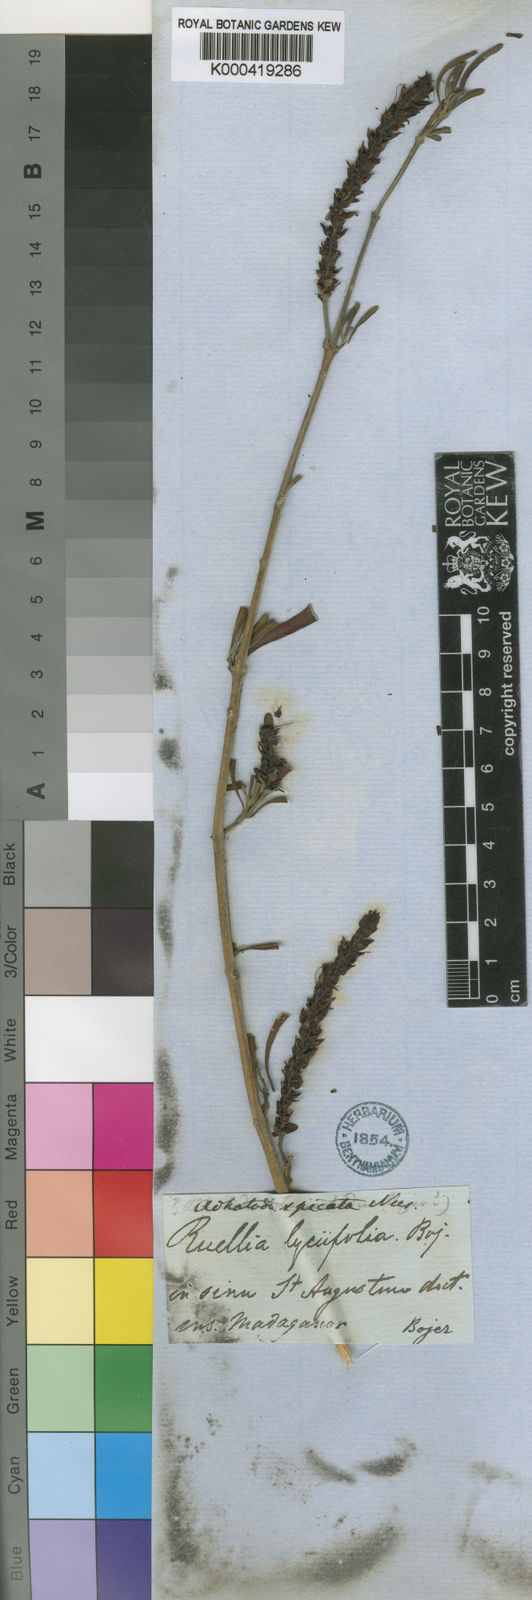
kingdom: Plantae
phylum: Tracheophyta
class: Magnoliopsida
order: Lamiales
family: Acanthaceae
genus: Justicia
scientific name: Justicia
